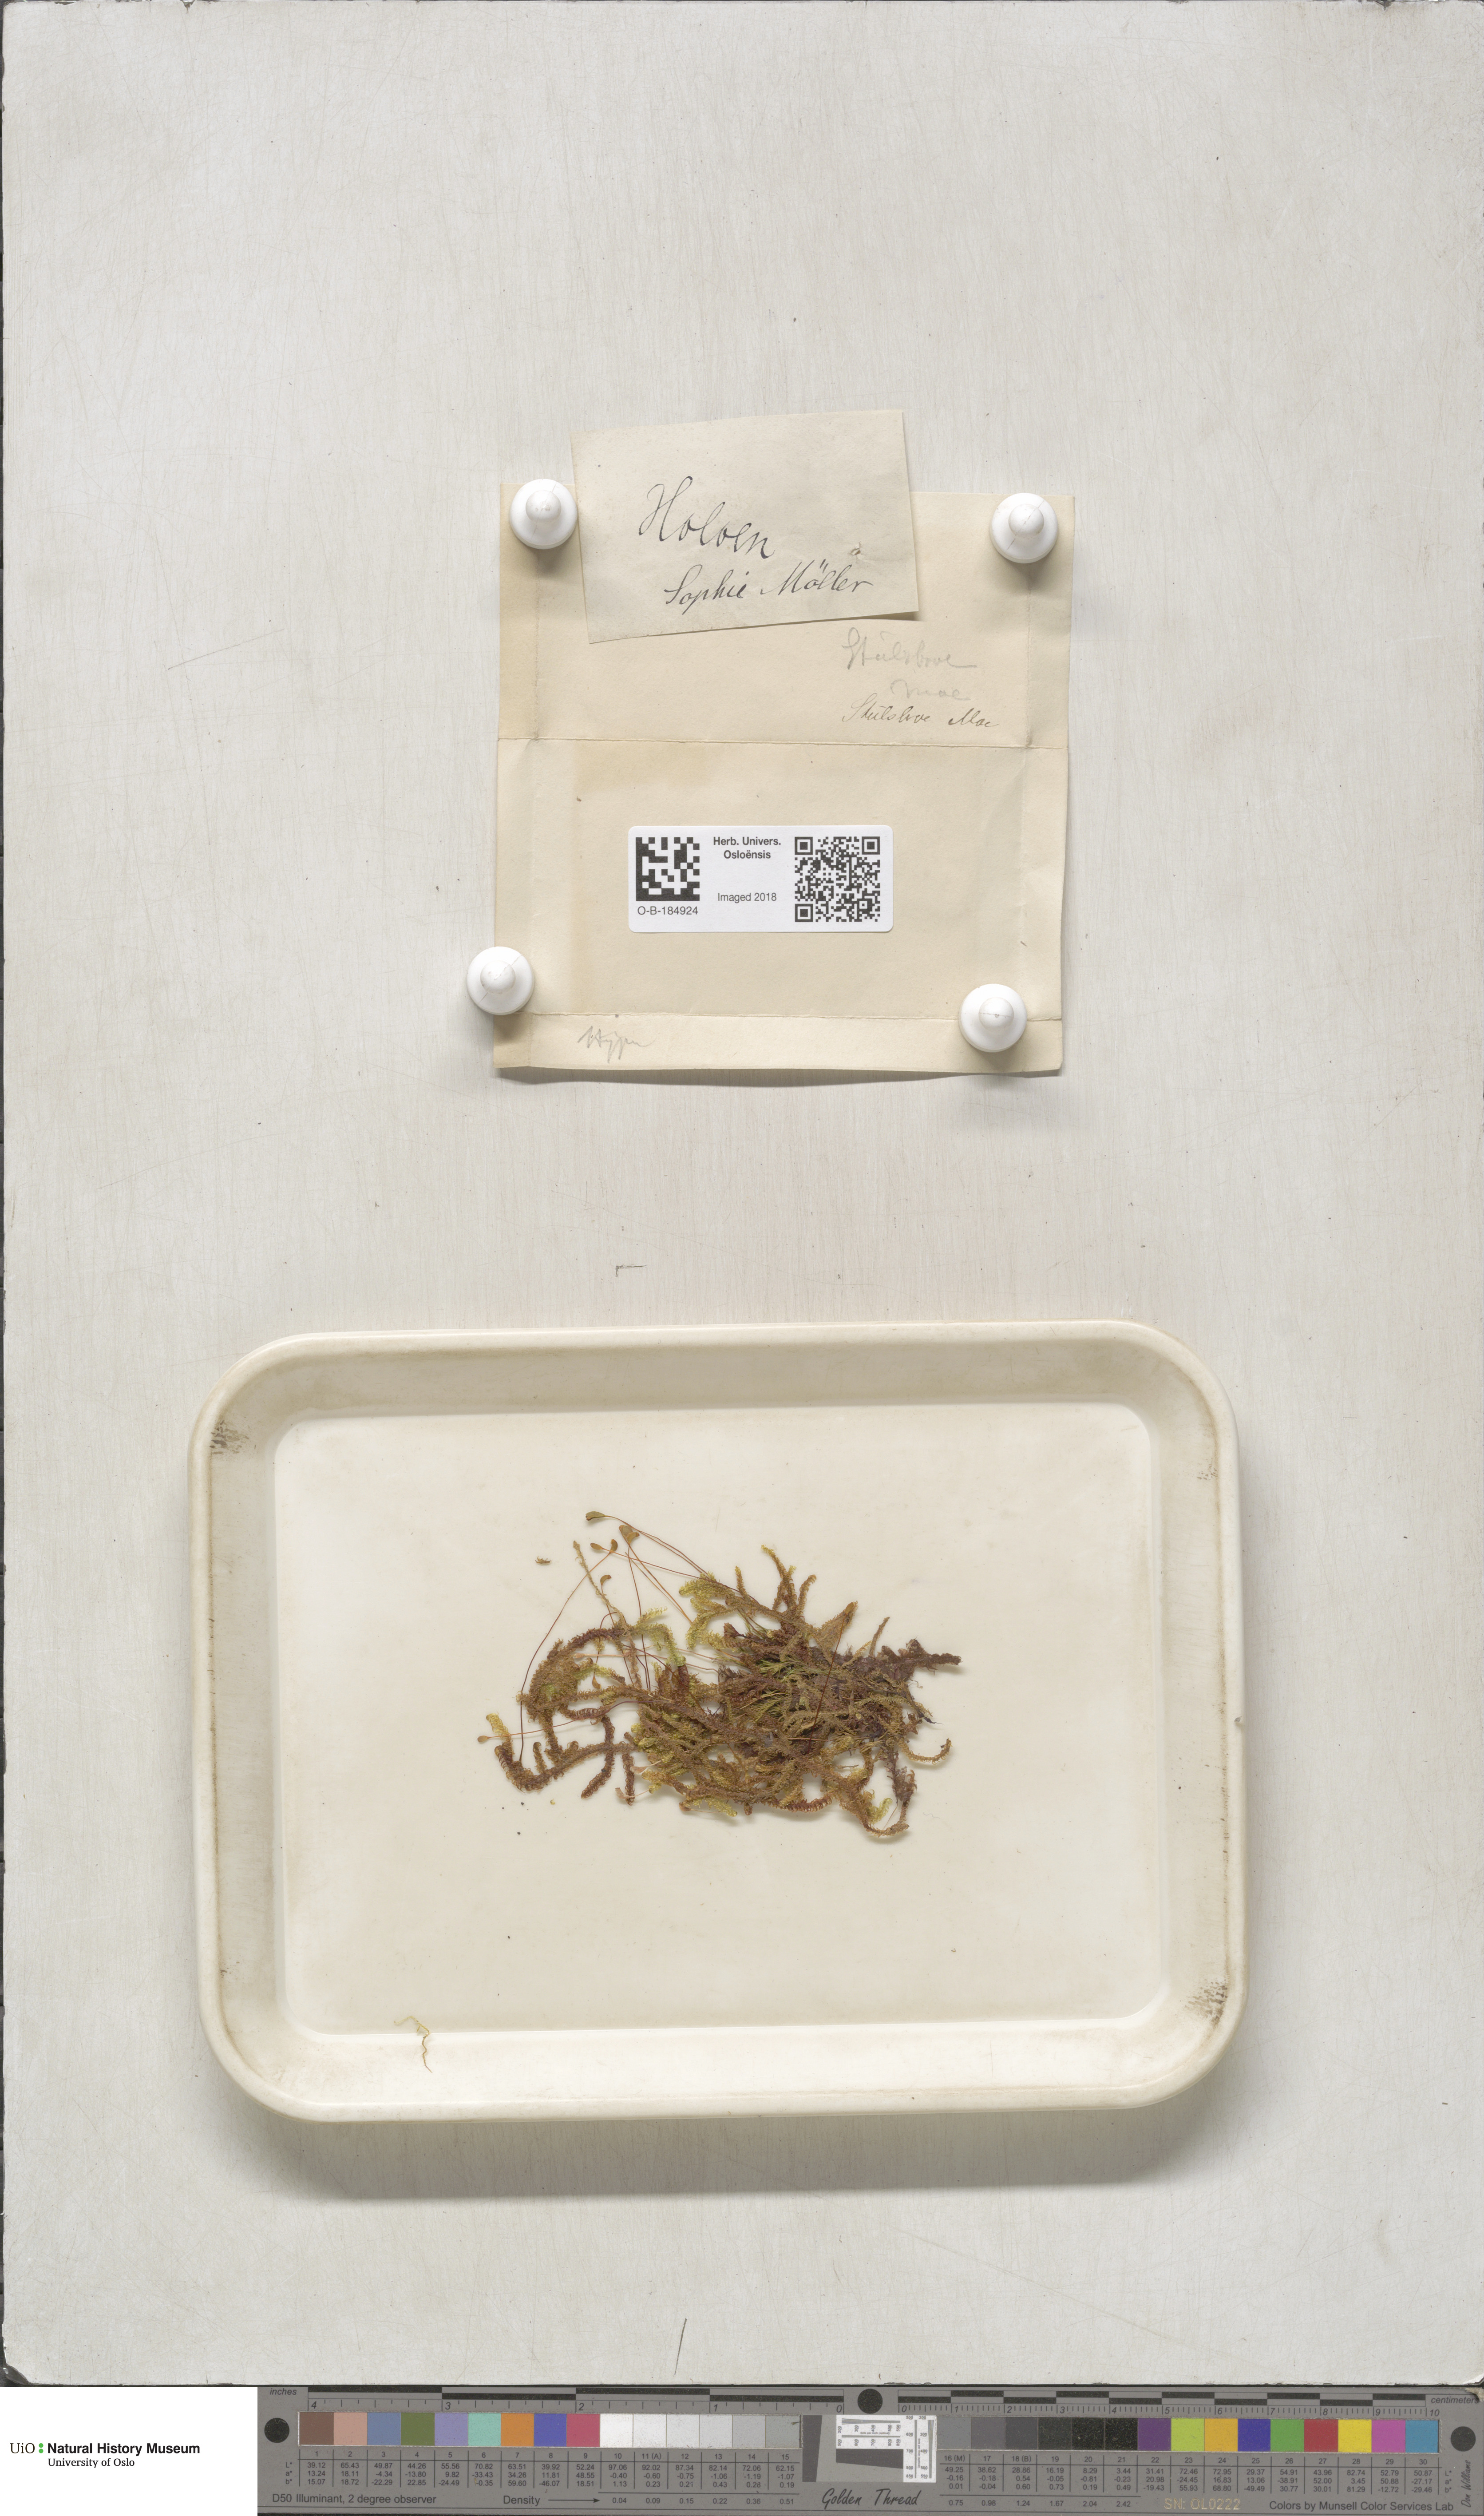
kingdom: Plantae
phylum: Bryophyta
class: Bryopsida
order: Hypnales
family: Scorpidiaceae
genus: Scorpidium
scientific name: Scorpidium revolvens
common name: Rusty hook moss
